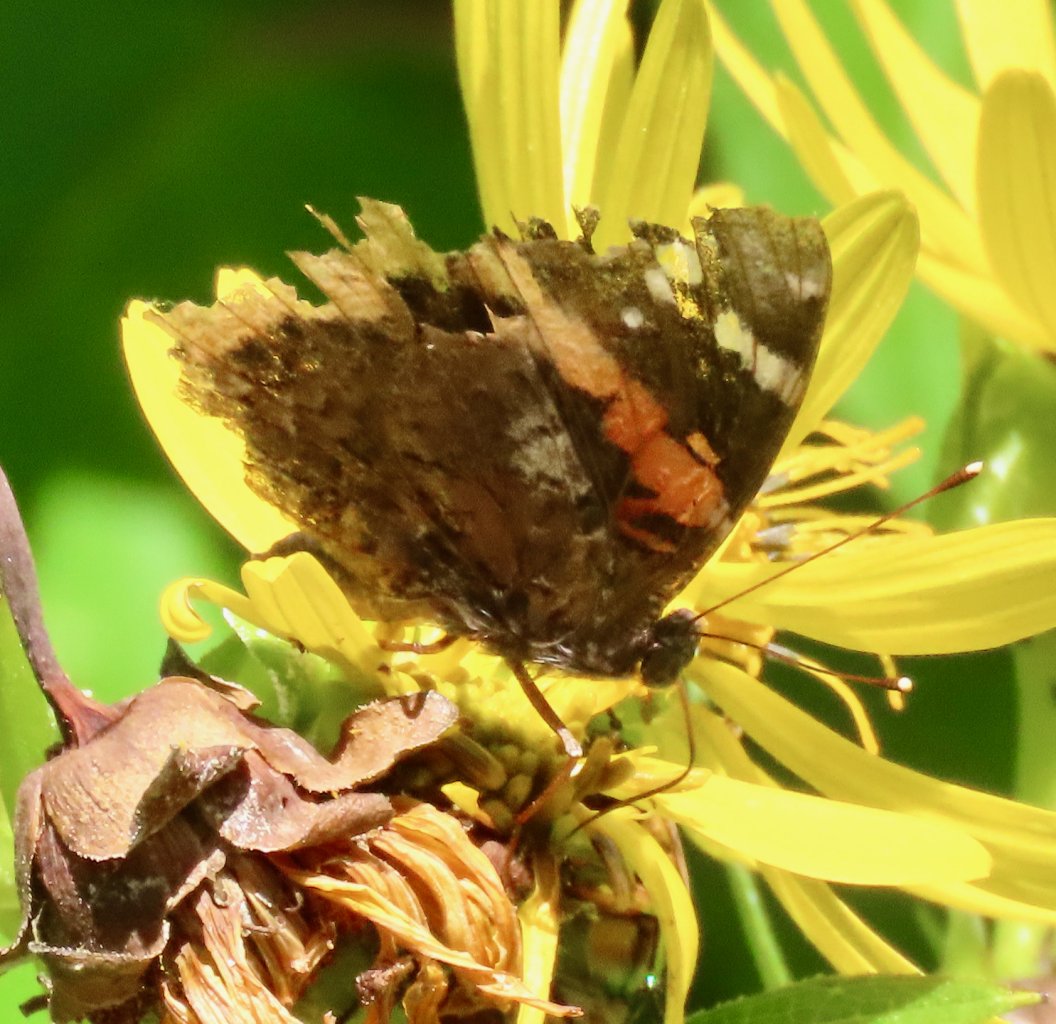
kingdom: Animalia
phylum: Arthropoda
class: Insecta
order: Lepidoptera
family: Nymphalidae
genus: Vanessa
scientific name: Vanessa atalanta
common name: Red Admiral
